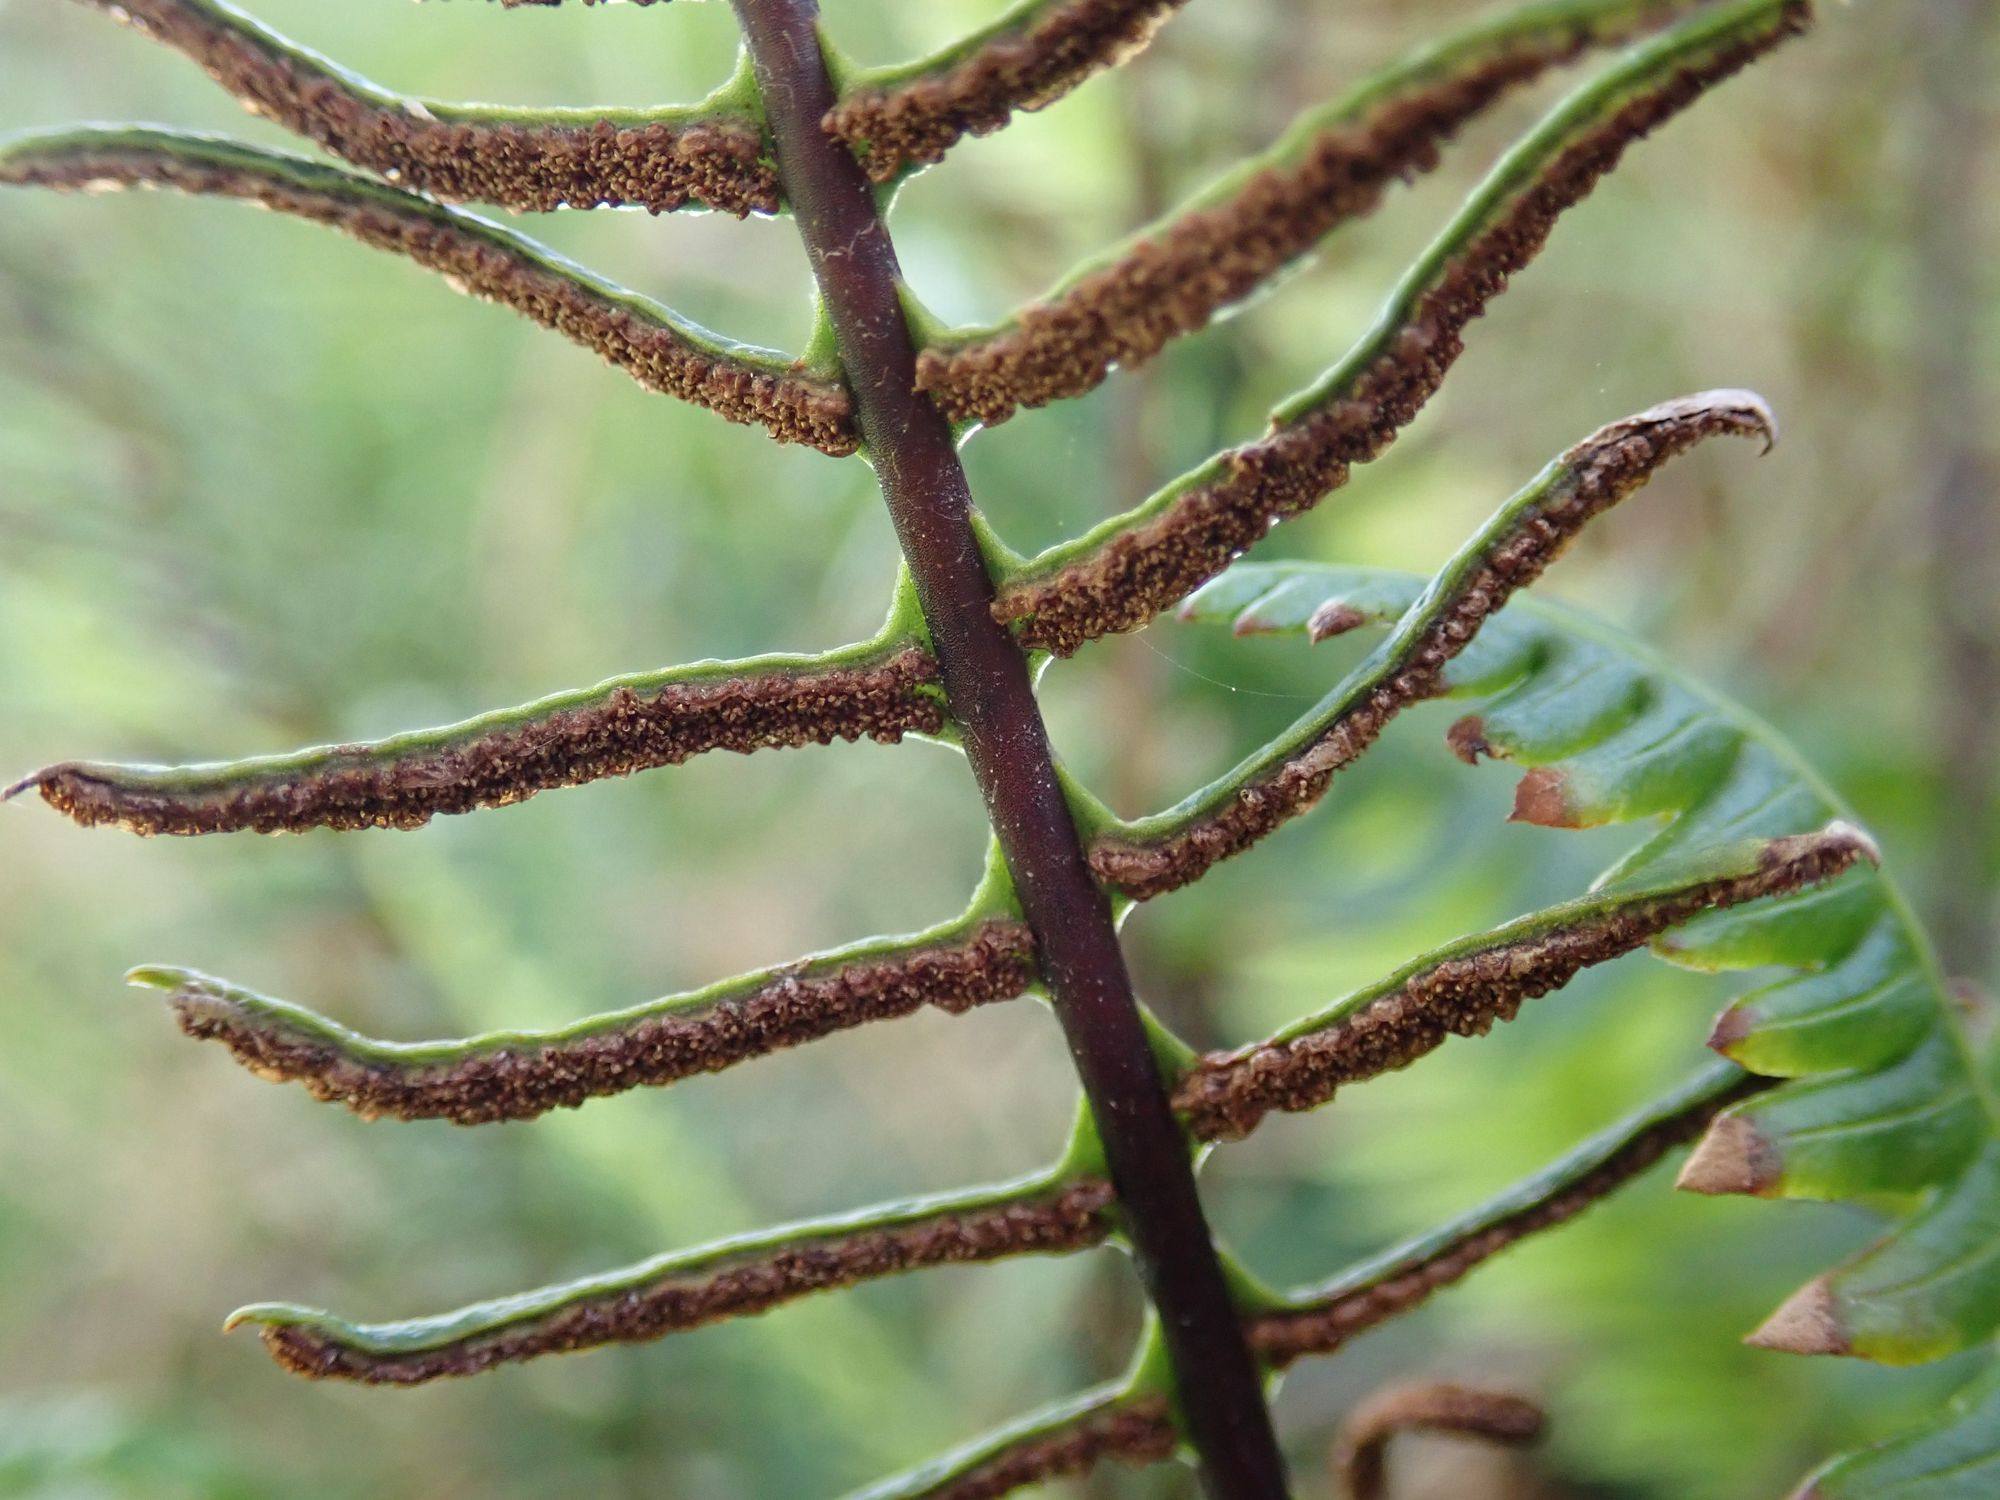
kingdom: Plantae
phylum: Tracheophyta
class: Polypodiopsida
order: Polypodiales
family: Blechnaceae
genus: Struthiopteris
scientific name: Struthiopteris spicant
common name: Kambregne
